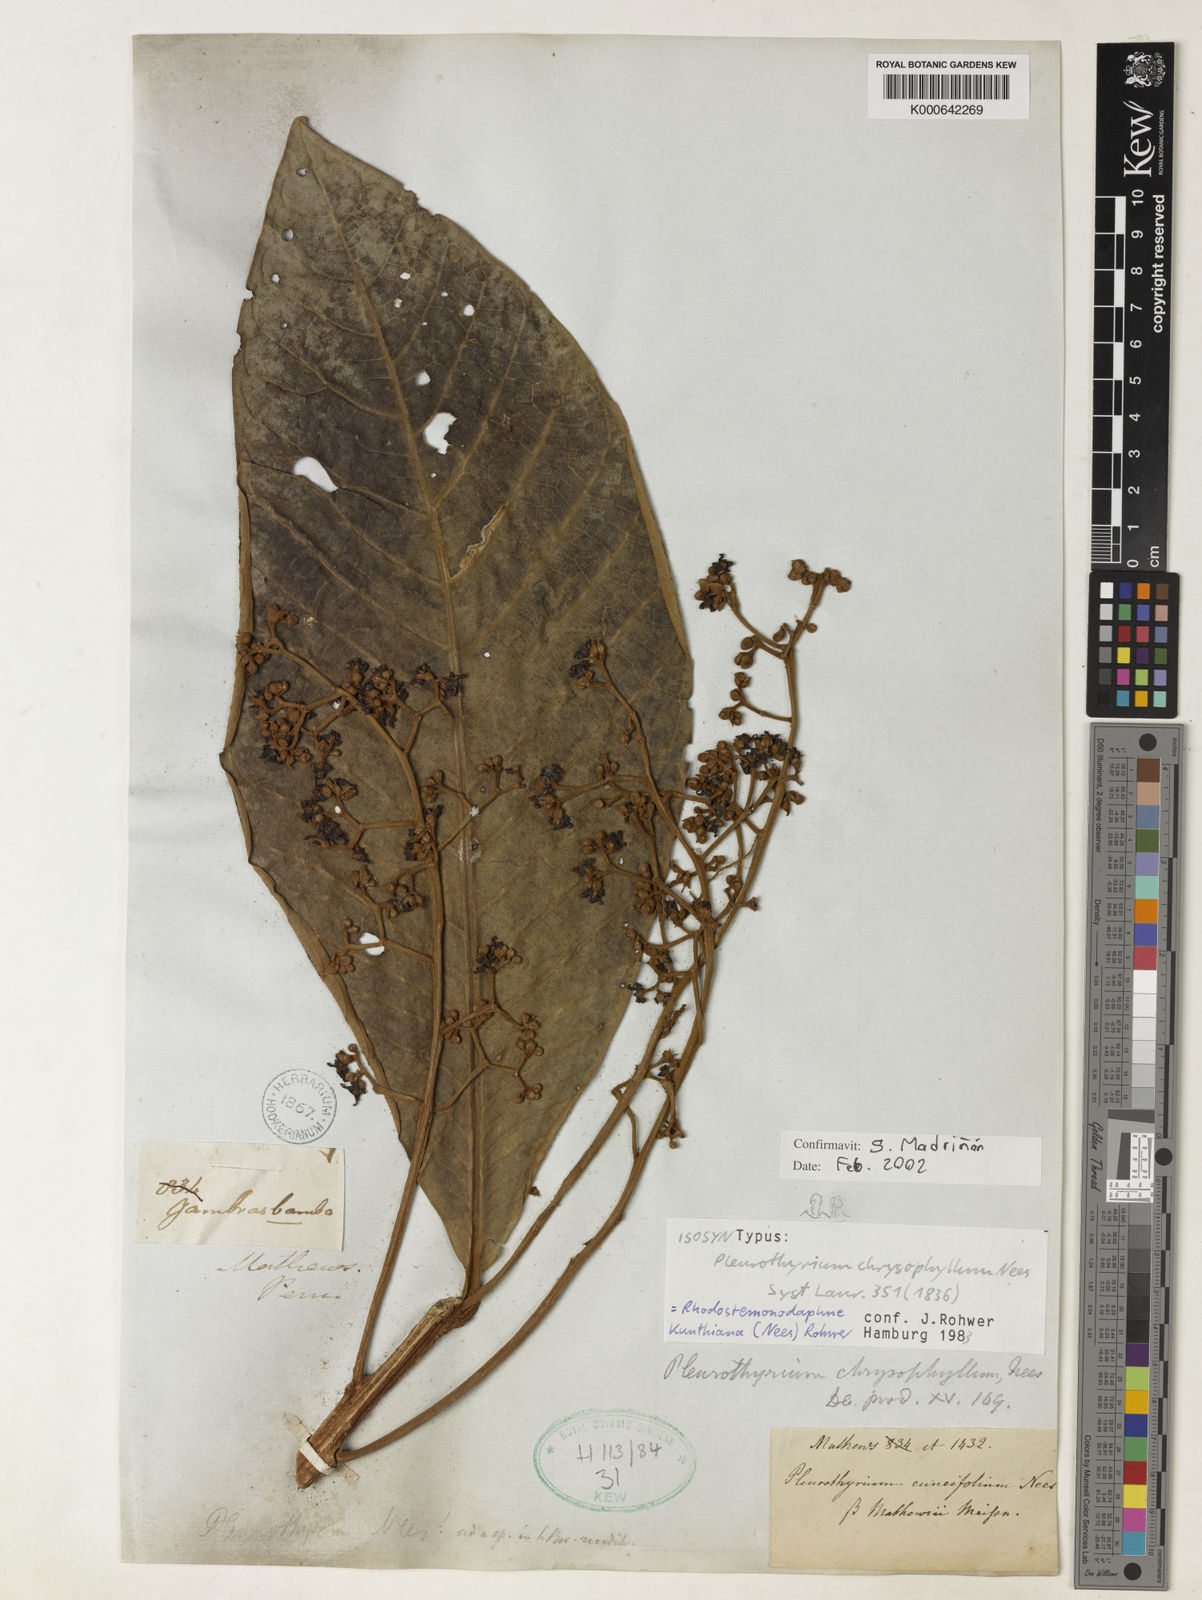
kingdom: Plantae
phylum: Tracheophyta
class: Magnoliopsida
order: Laurales
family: Lauraceae
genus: Rhodostemonodaphne
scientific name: Rhodostemonodaphne kunthiana
